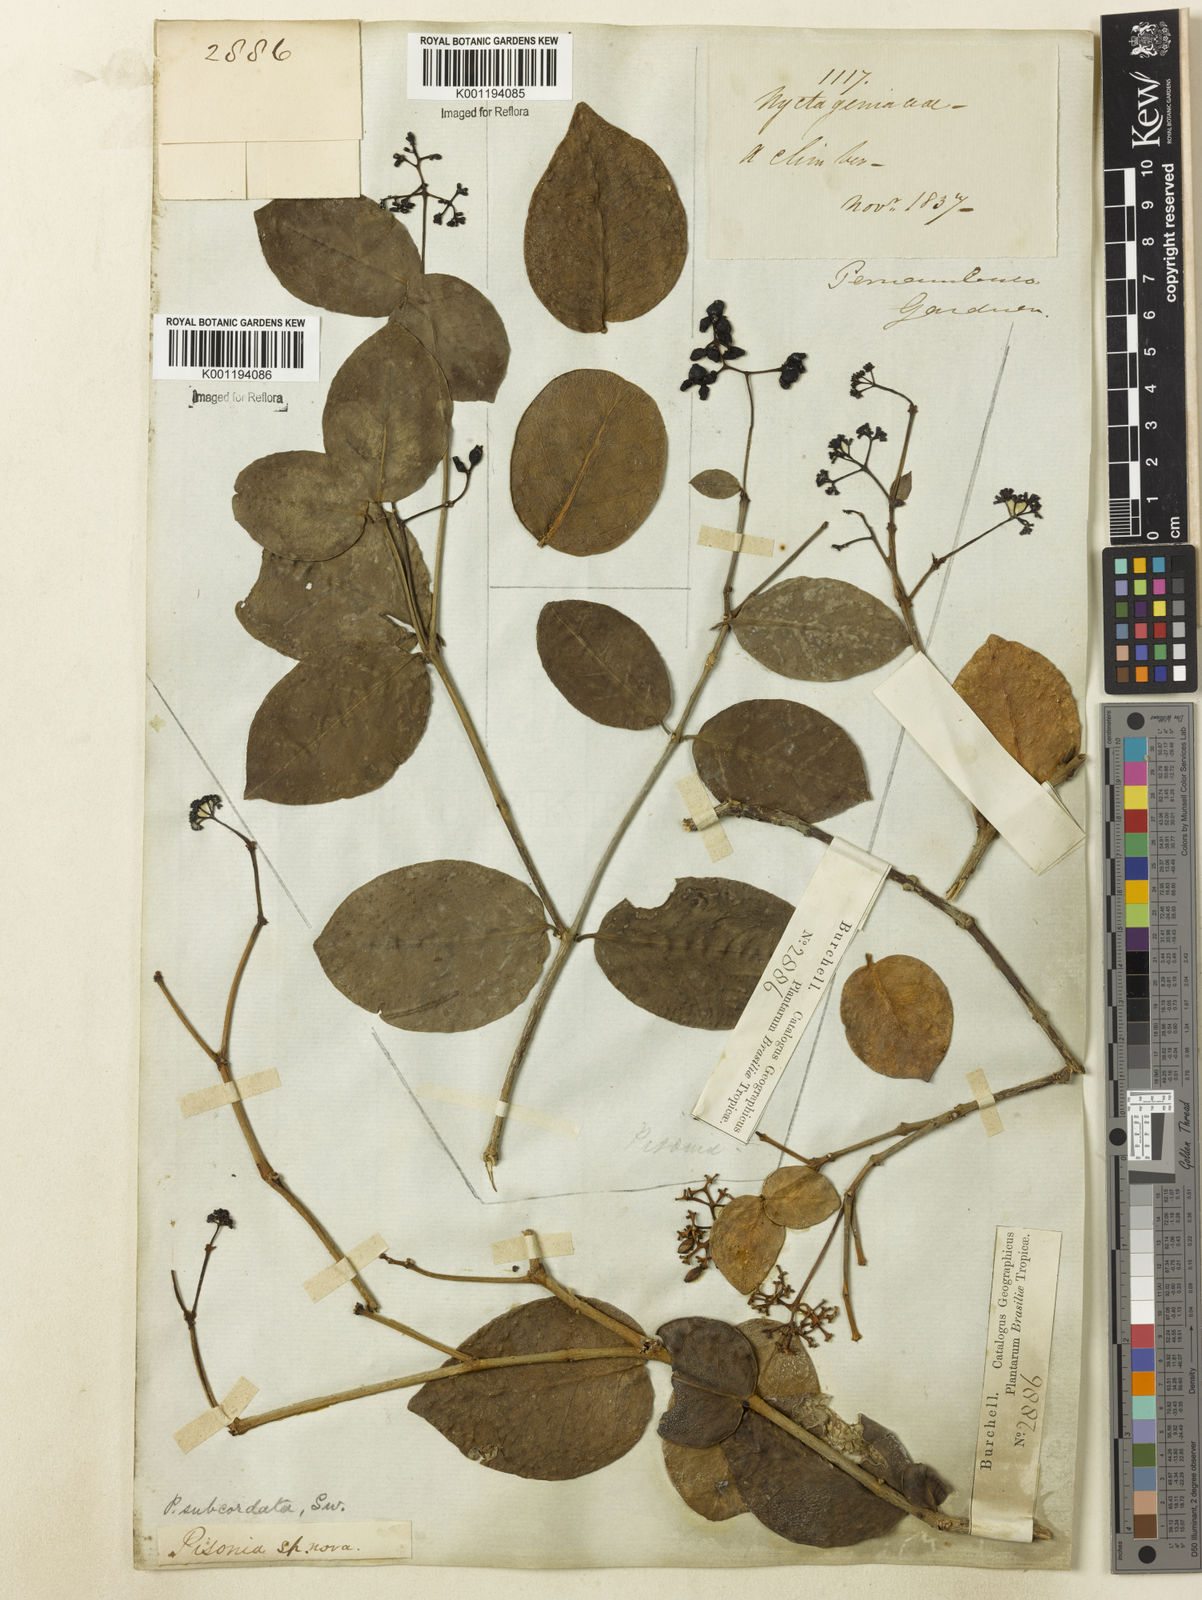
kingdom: Plantae
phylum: Tracheophyta
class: Magnoliopsida
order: Caryophyllales
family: Nyctaginaceae
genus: Guapira
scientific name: Guapira
